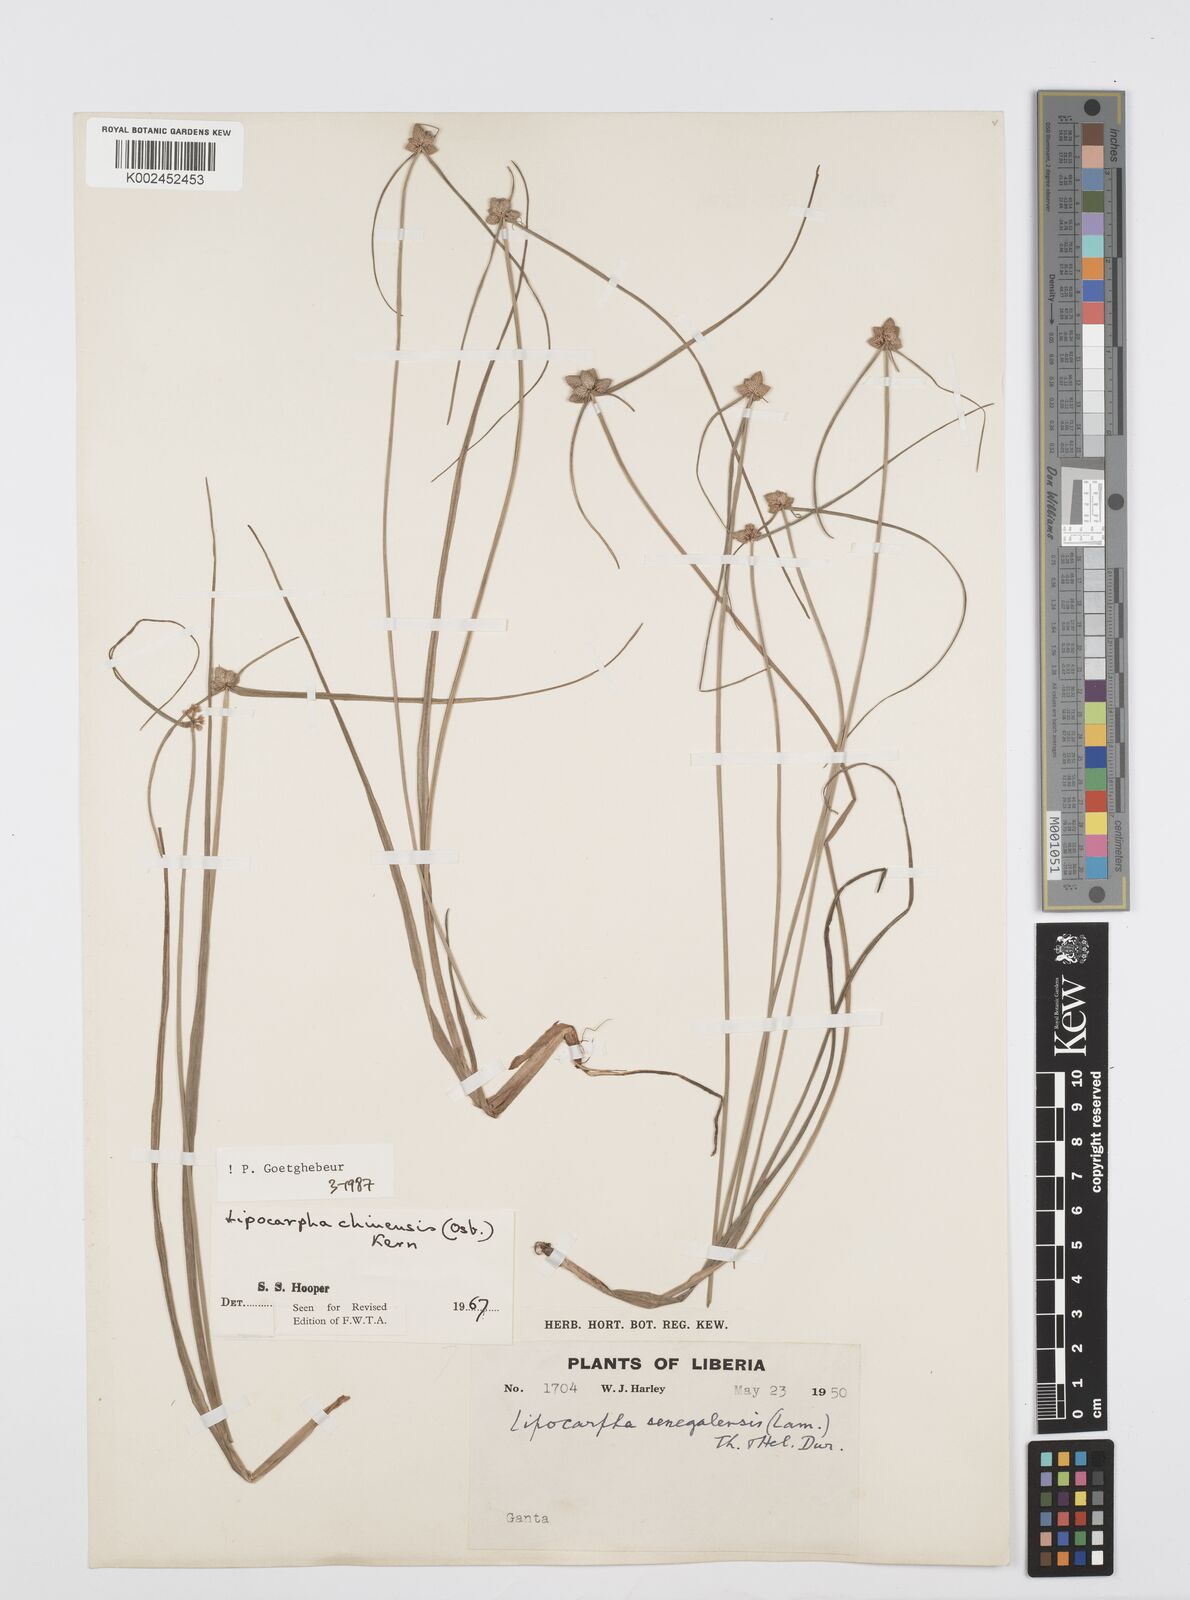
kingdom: Plantae
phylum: Tracheophyta
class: Liliopsida
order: Poales
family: Cyperaceae
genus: Cyperus
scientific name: Cyperus albescens
